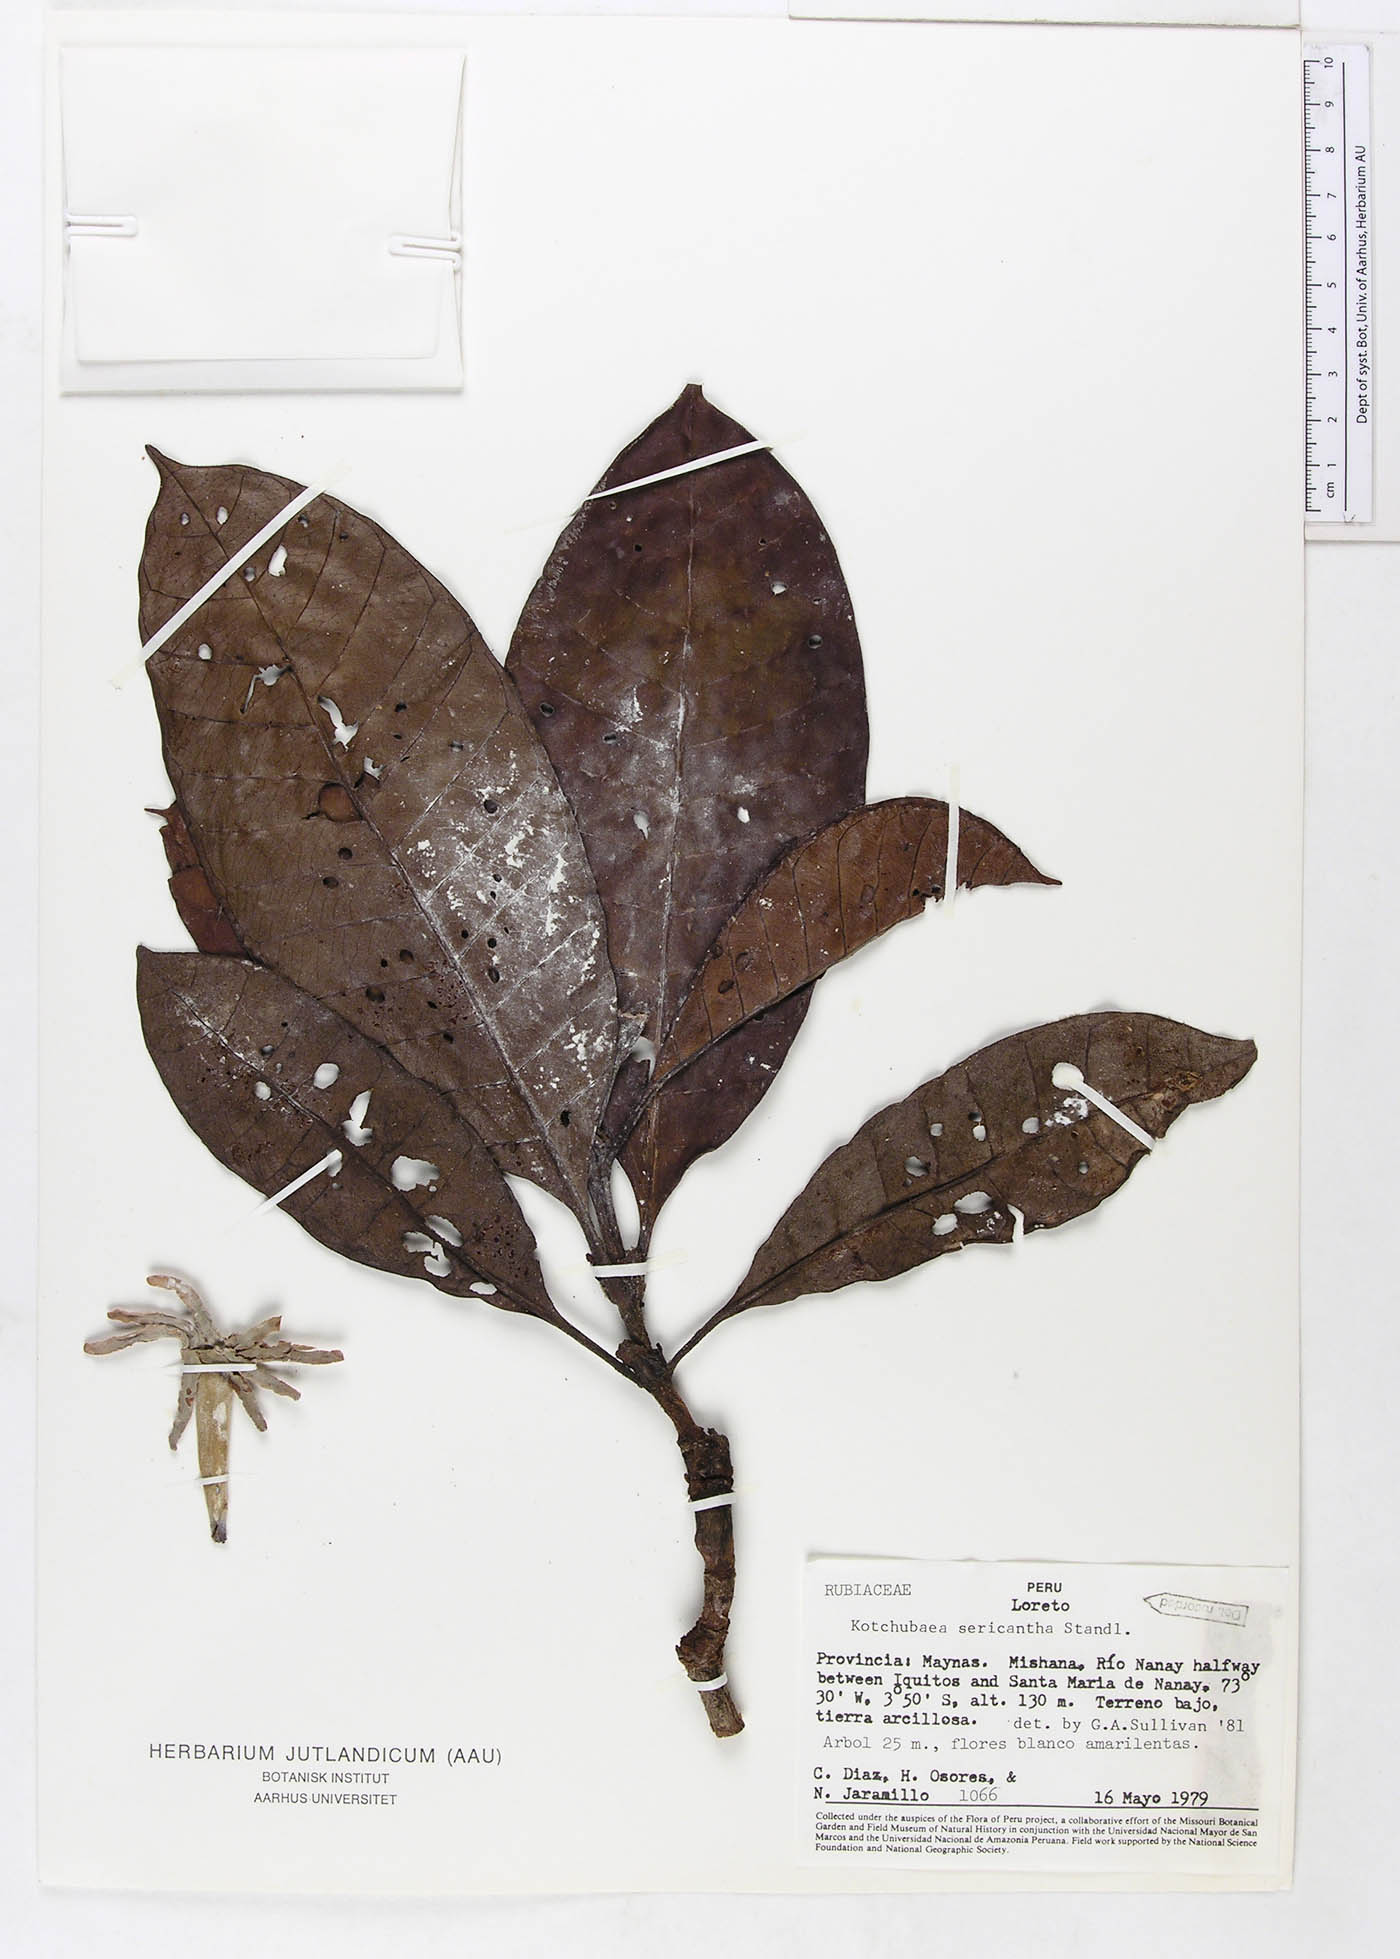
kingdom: Plantae
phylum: Tracheophyta
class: Magnoliopsida
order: Gentianales
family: Rubiaceae
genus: Kutchubaea
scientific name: Kutchubaea sericantha
